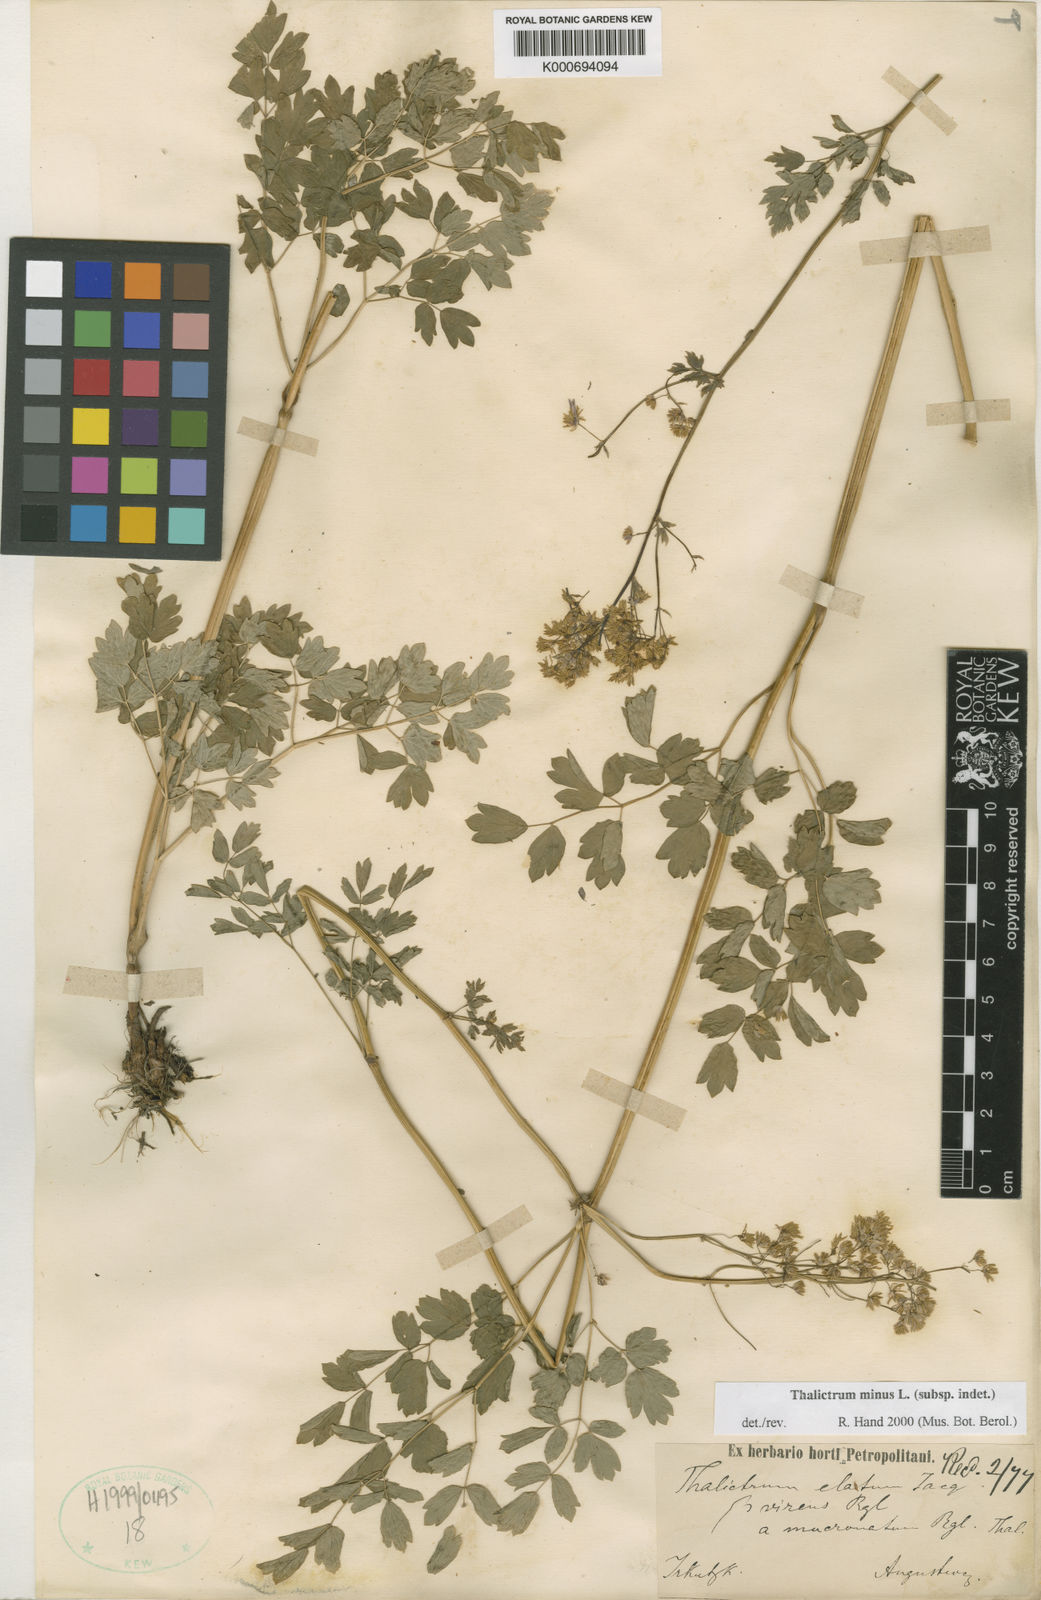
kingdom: Plantae
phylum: Tracheophyta
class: Magnoliopsida
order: Ranunculales
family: Ranunculaceae
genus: Thalictrum
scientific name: Thalictrum
